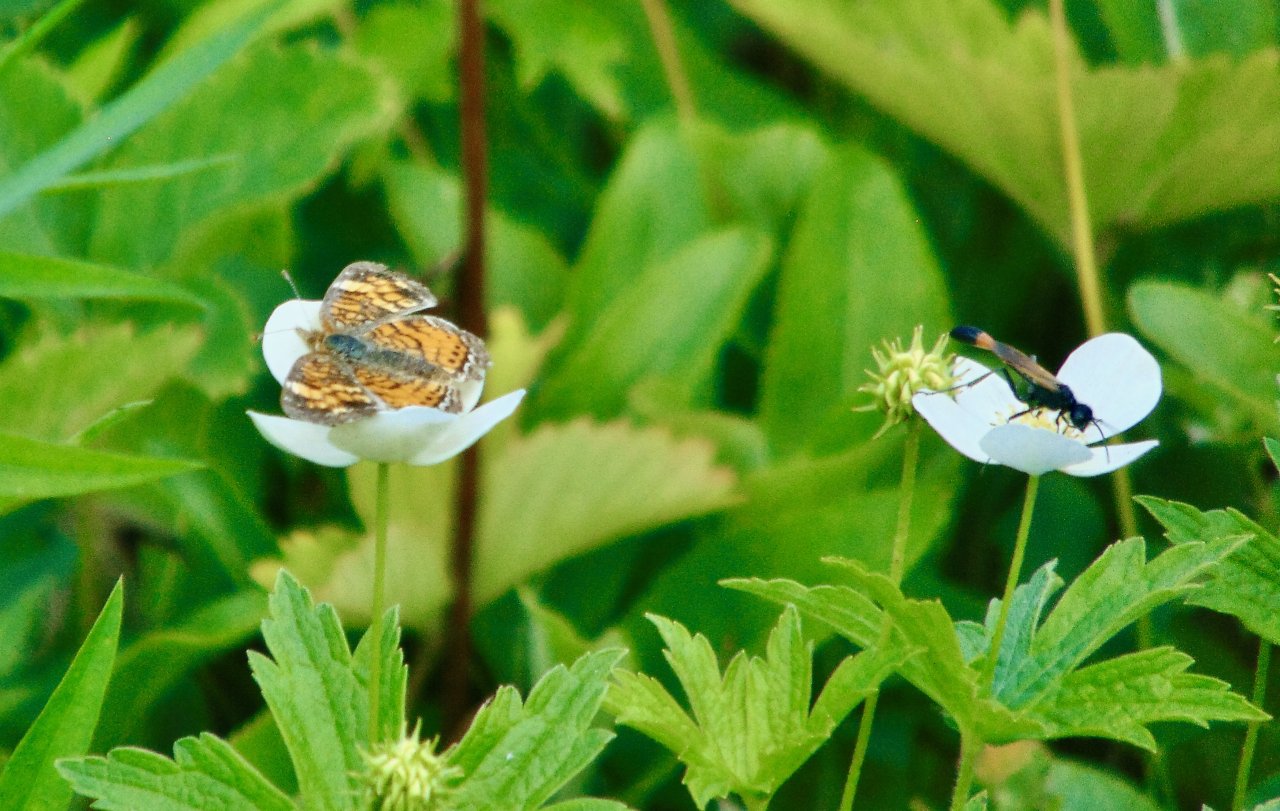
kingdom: Animalia
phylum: Arthropoda
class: Insecta
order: Lepidoptera
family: Nymphalidae
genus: Phyciodes
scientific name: Phyciodes tharos
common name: Pearl Crescent
